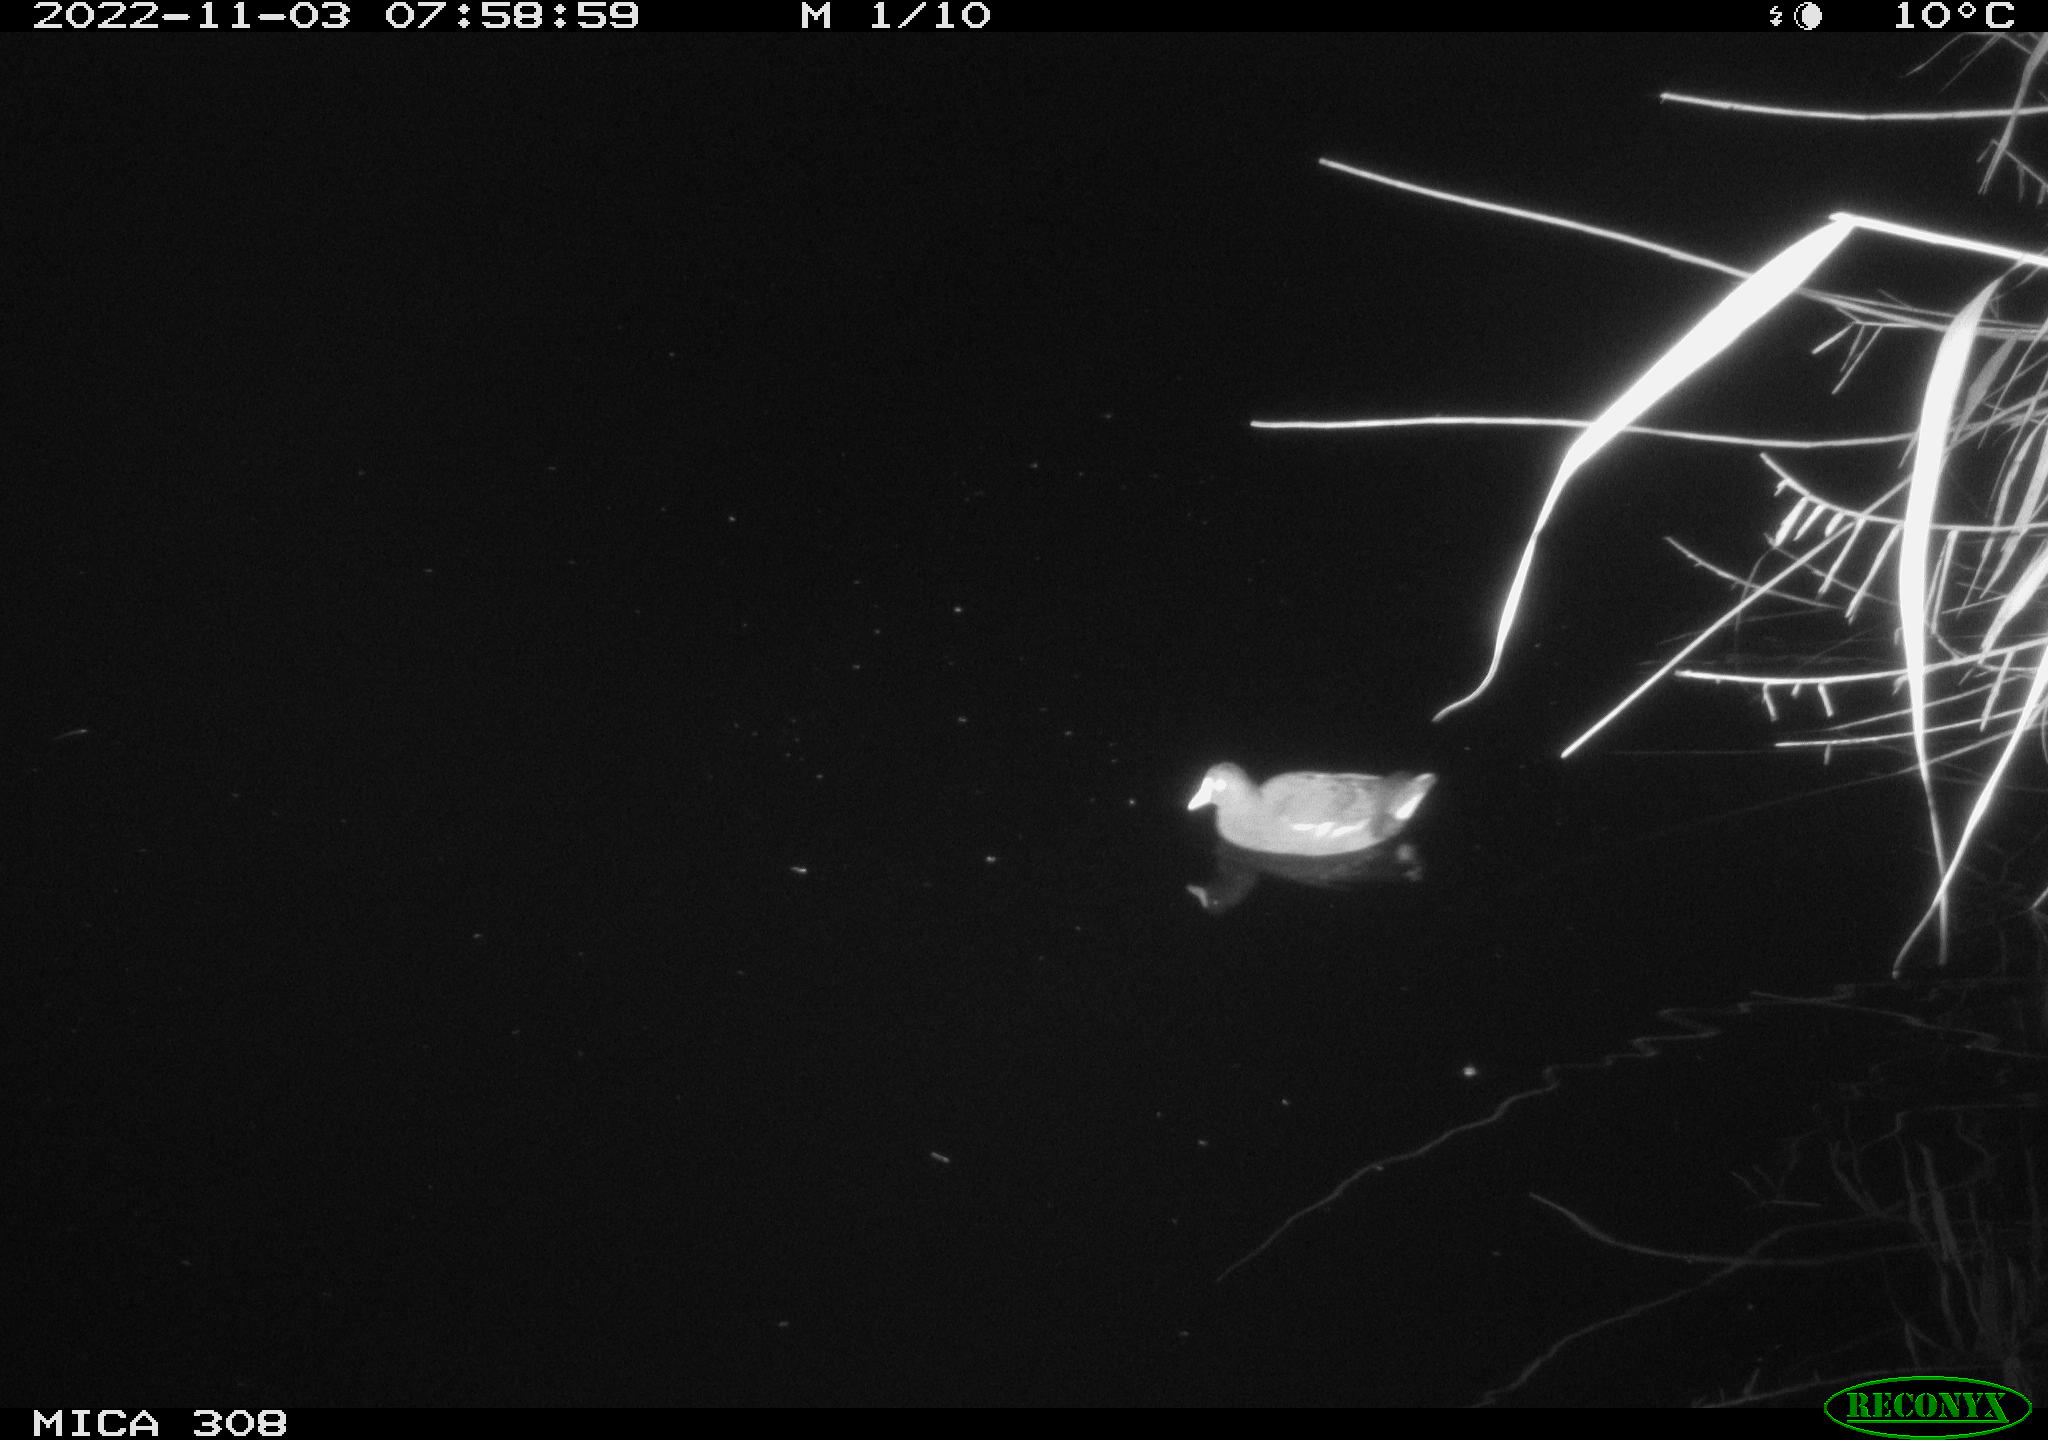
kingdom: Animalia
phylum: Chordata
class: Aves
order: Gruiformes
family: Rallidae
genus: Gallinula
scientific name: Gallinula chloropus
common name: Common moorhen
